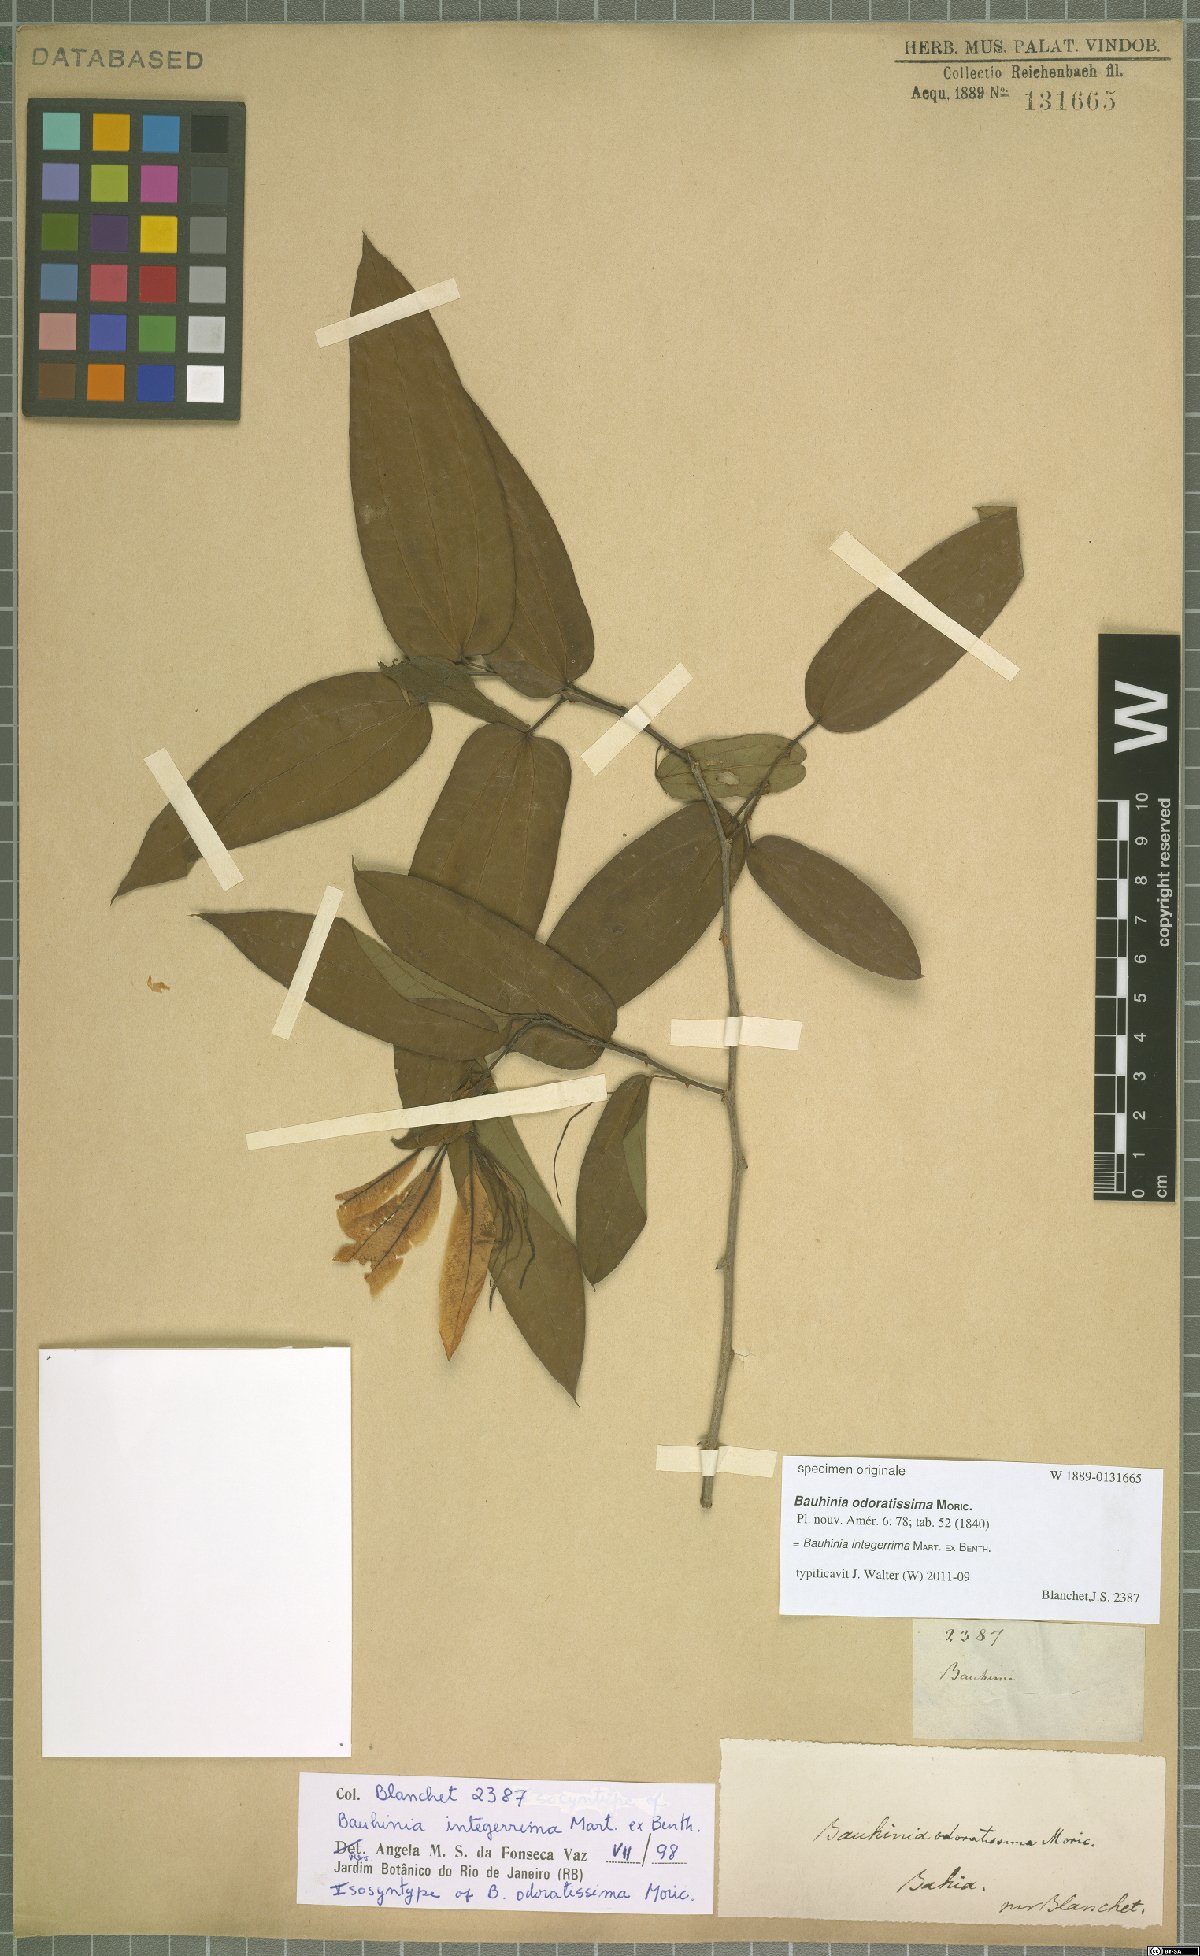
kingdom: Plantae
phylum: Tracheophyta
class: Magnoliopsida
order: Fabales
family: Fabaceae
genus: Bauhinia
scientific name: Bauhinia integerrima
